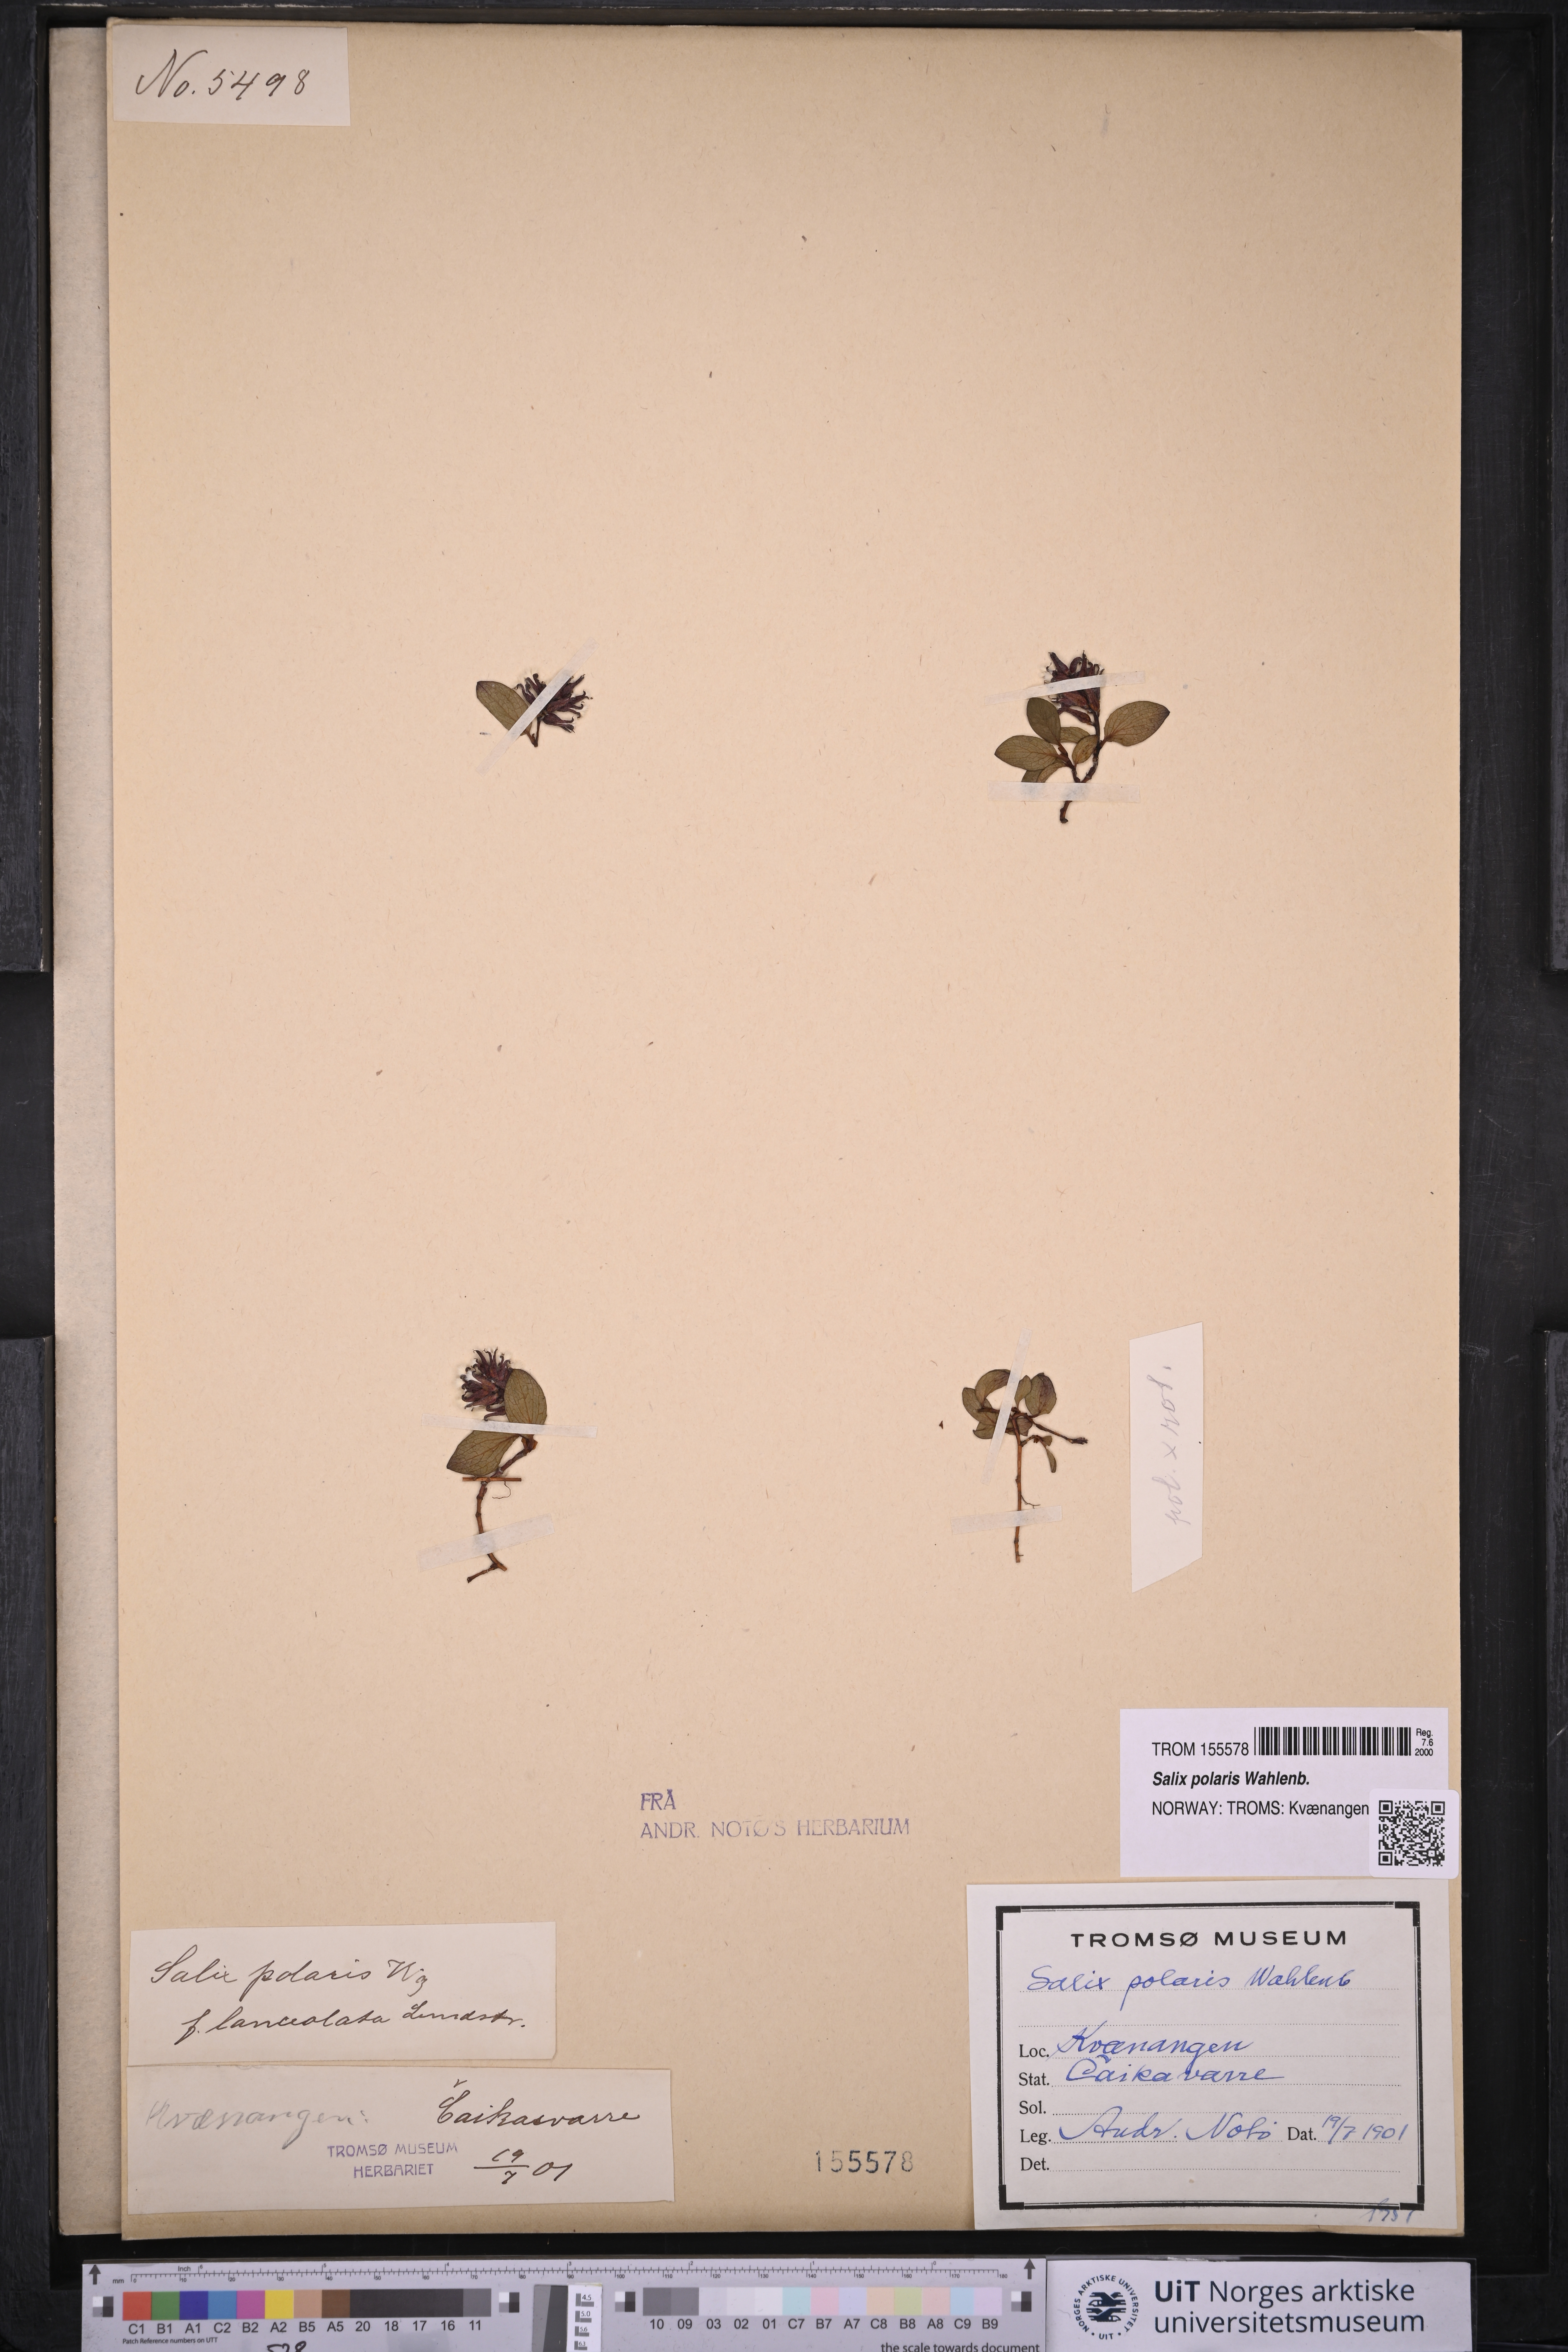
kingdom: Plantae
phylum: Tracheophyta
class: Magnoliopsida
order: Malpighiales
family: Salicaceae
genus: Salix
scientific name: Salix polaris
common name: Polar willow
